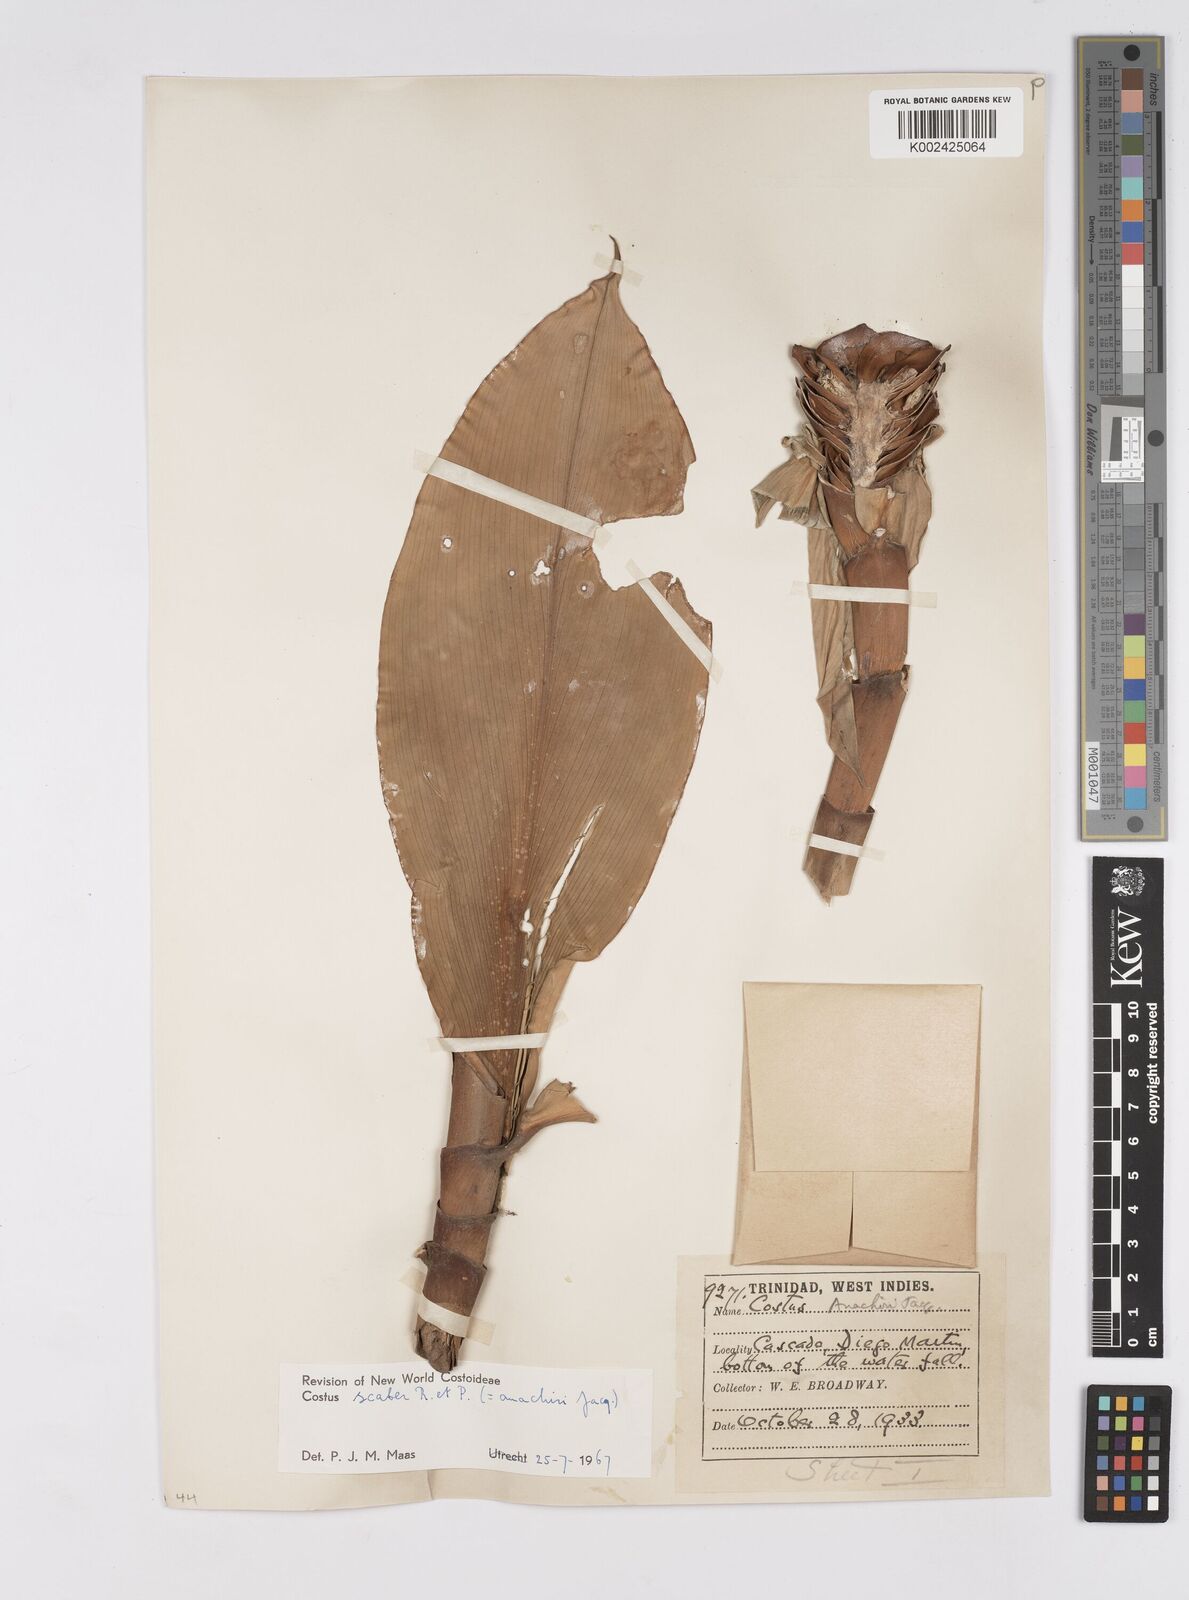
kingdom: Plantae
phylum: Tracheophyta
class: Liliopsida
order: Zingiberales
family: Costaceae
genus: Costus
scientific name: Costus scaber
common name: Spiral head ginger
